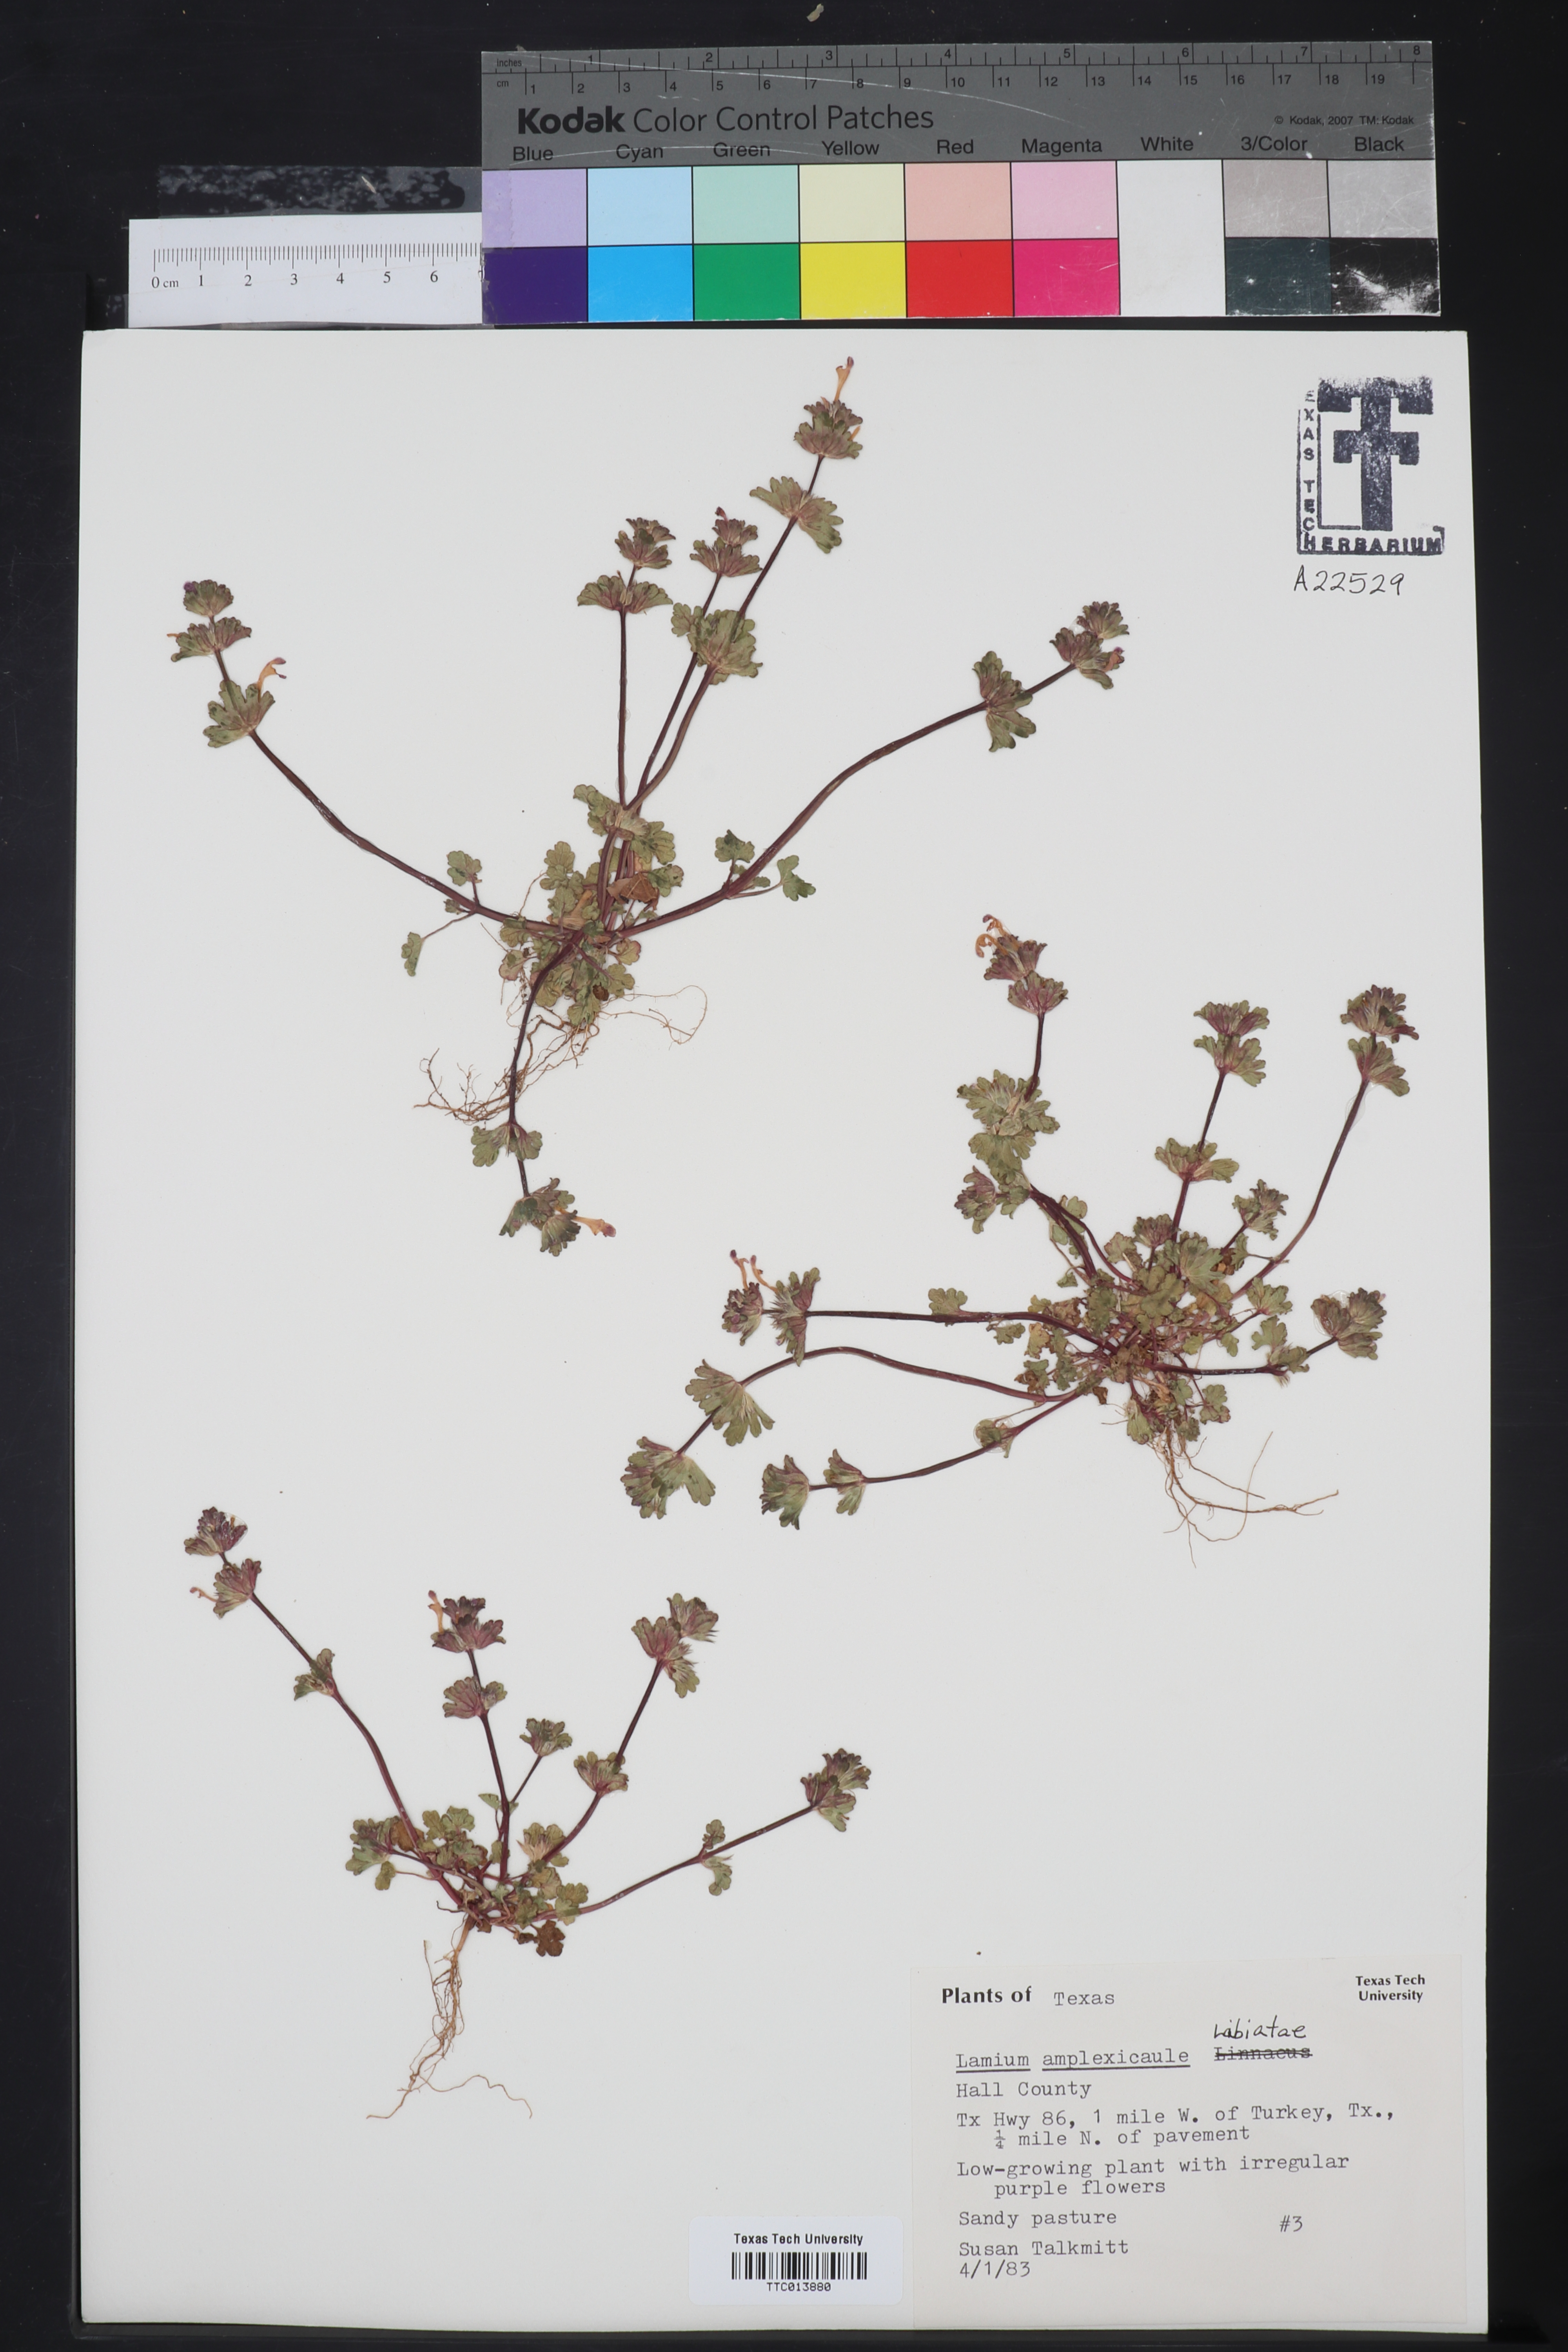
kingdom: Plantae
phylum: Tracheophyta
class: Magnoliopsida
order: Lamiales
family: Lamiaceae
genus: Lamium
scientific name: Lamium amplexicaule
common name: Henbit dead-nettle
